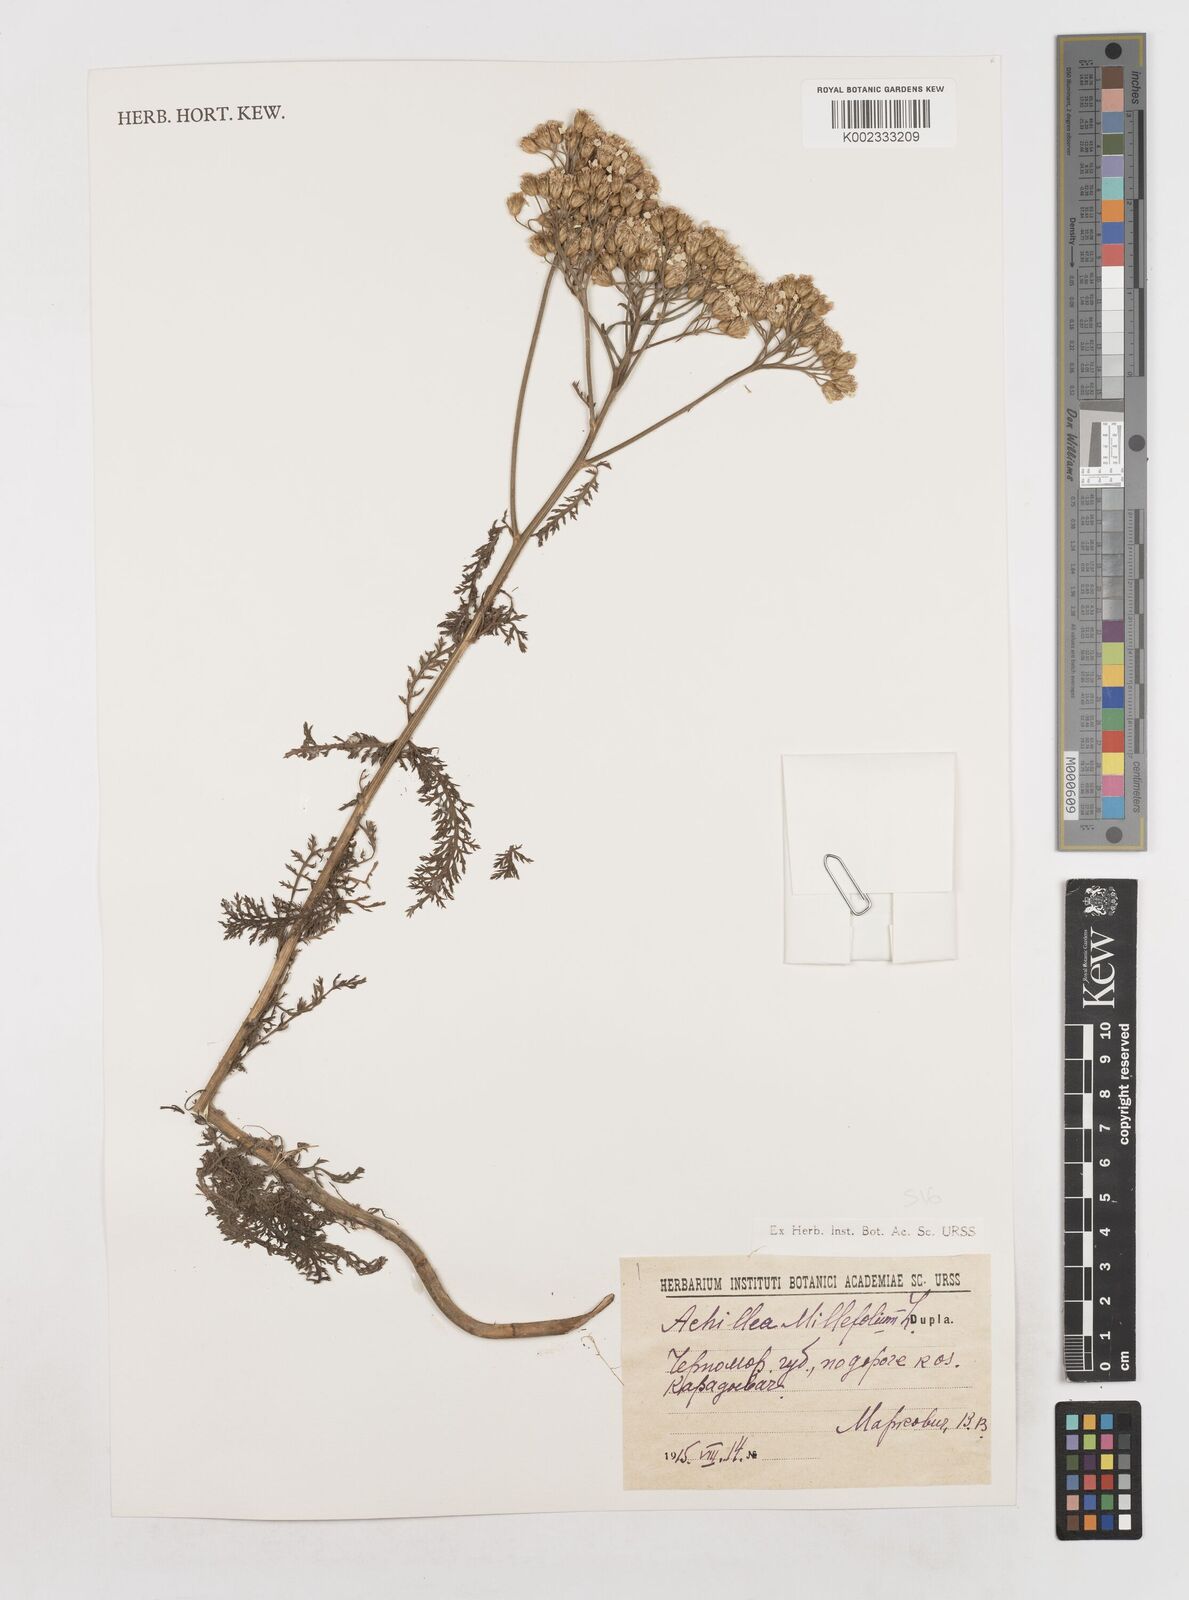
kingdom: Plantae
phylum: Tracheophyta
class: Magnoliopsida
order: Asterales
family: Asteraceae
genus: Achillea
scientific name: Achillea millefolium
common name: Yarrow
